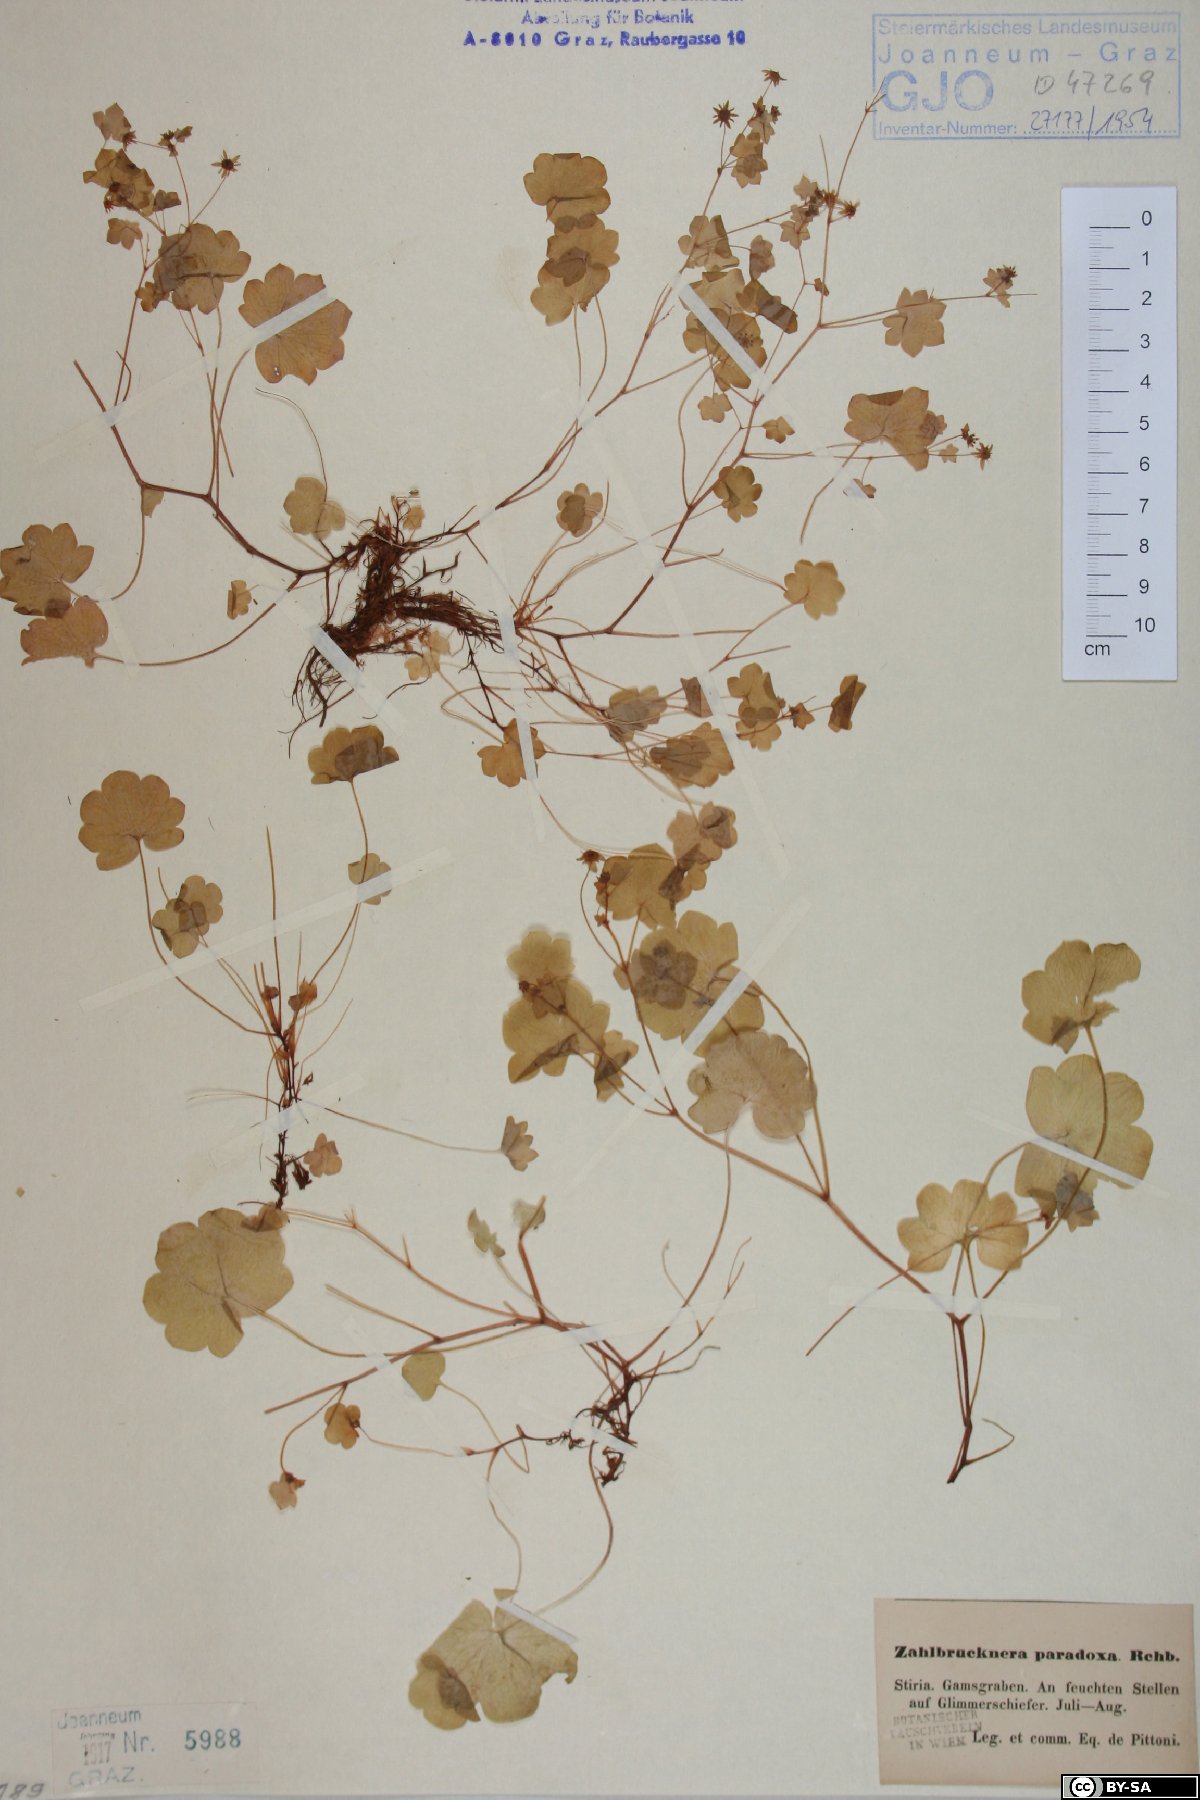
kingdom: Plantae
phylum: Tracheophyta
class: Magnoliopsida
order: Saxifragales
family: Saxifragaceae
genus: Saxifraga
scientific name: Saxifraga paradoxa
